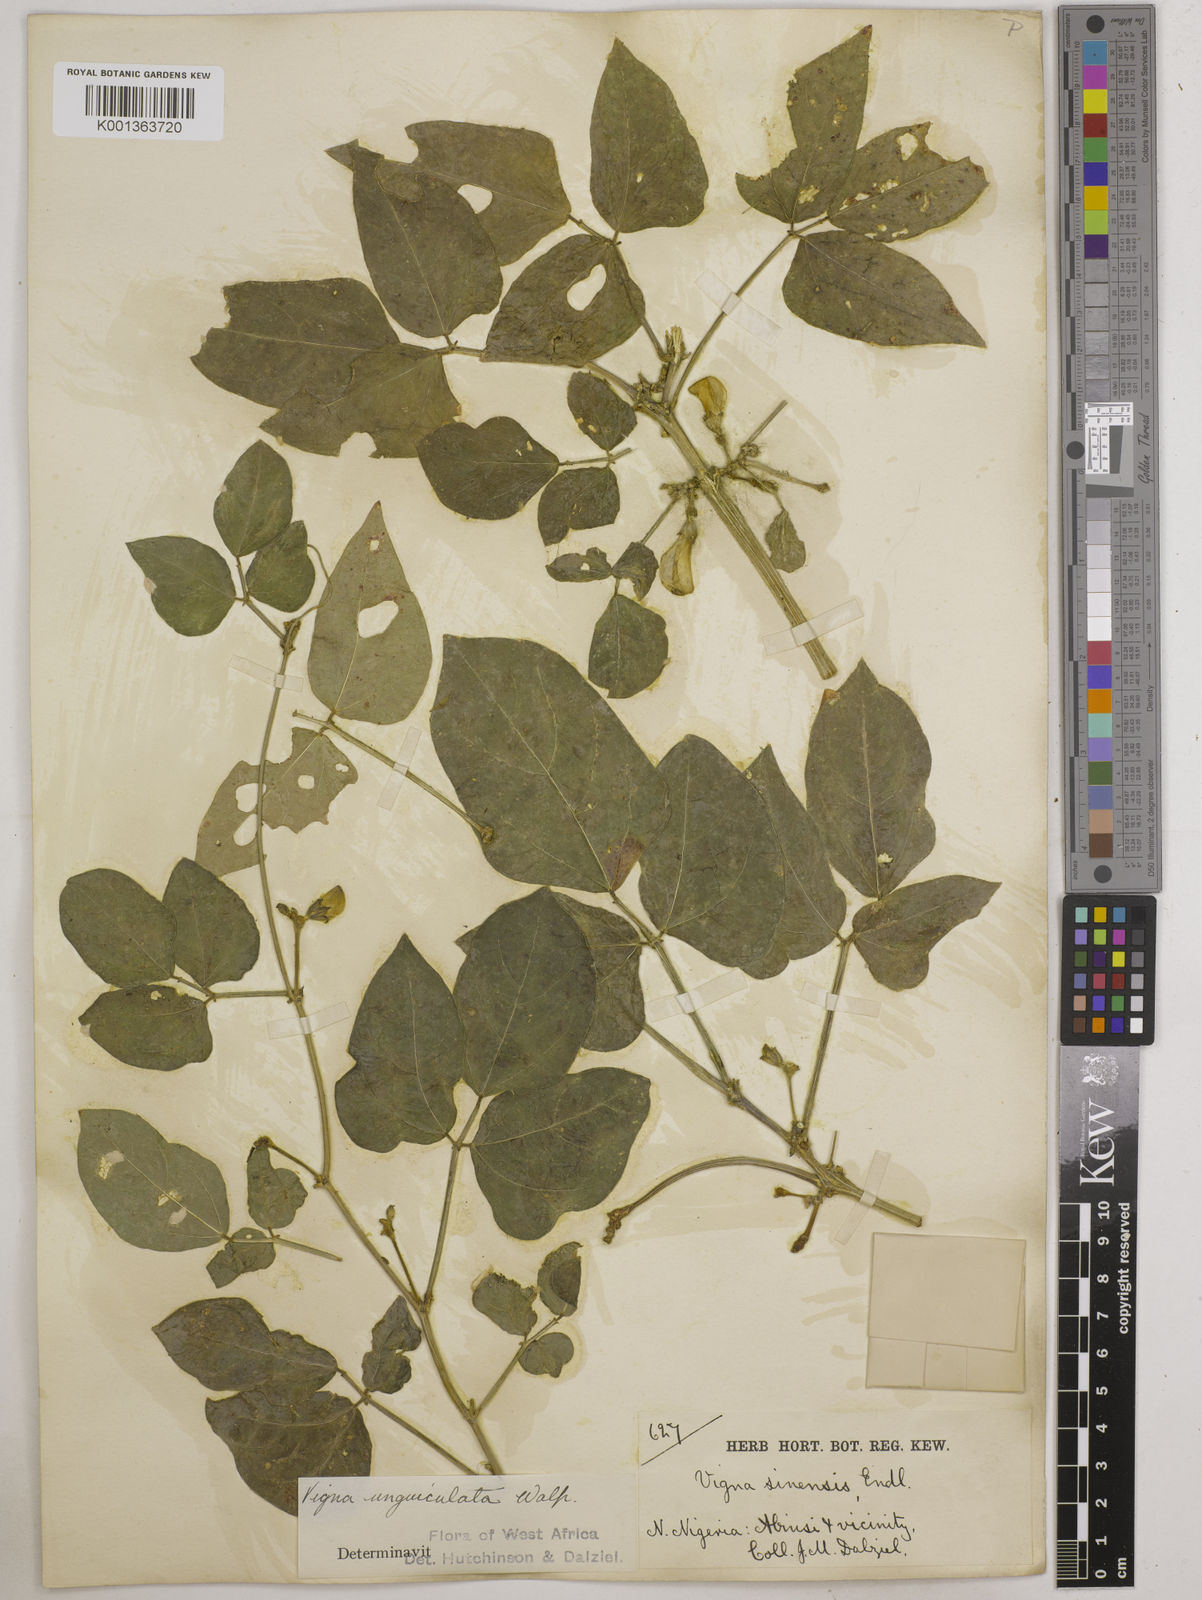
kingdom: Plantae
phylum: Tracheophyta
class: Magnoliopsida
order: Fabales
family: Fabaceae
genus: Vigna
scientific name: Vigna unguiculata
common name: Cowpea
